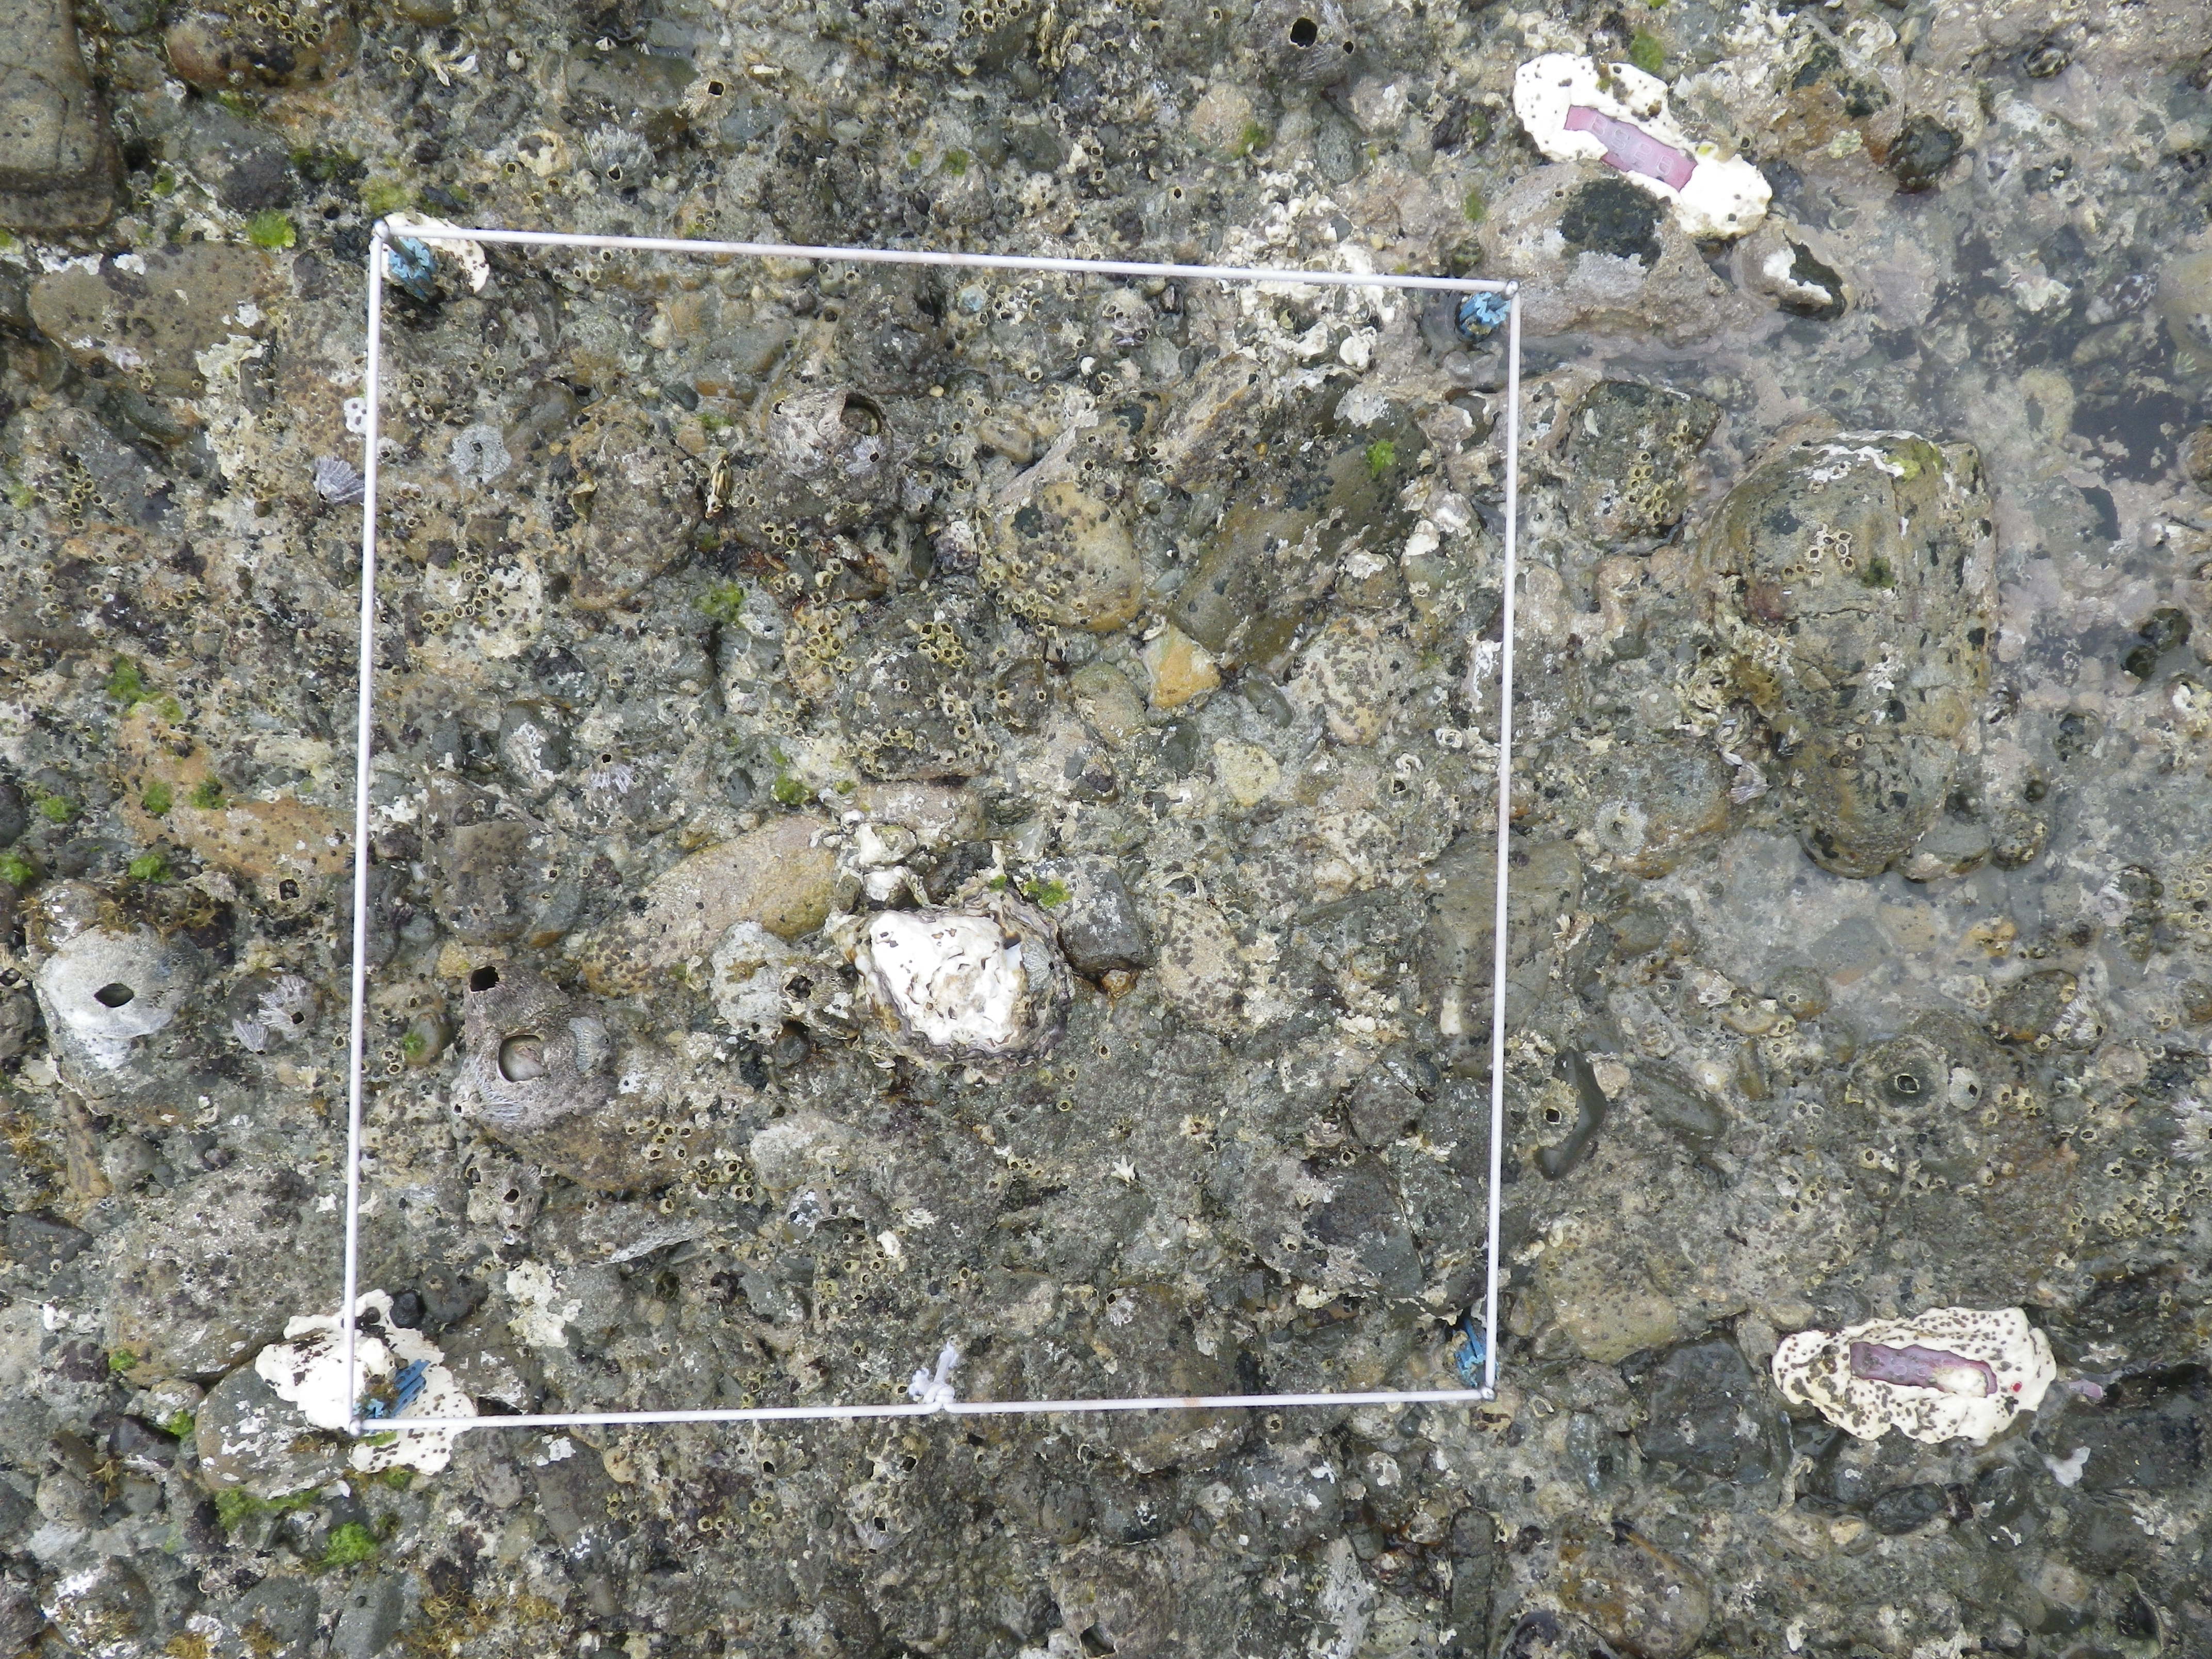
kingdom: Animalia
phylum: Arthropoda
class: Maxillopoda
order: Pedunculata
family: Pollicipedidae
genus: Capitulum
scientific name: Capitulum mitella
